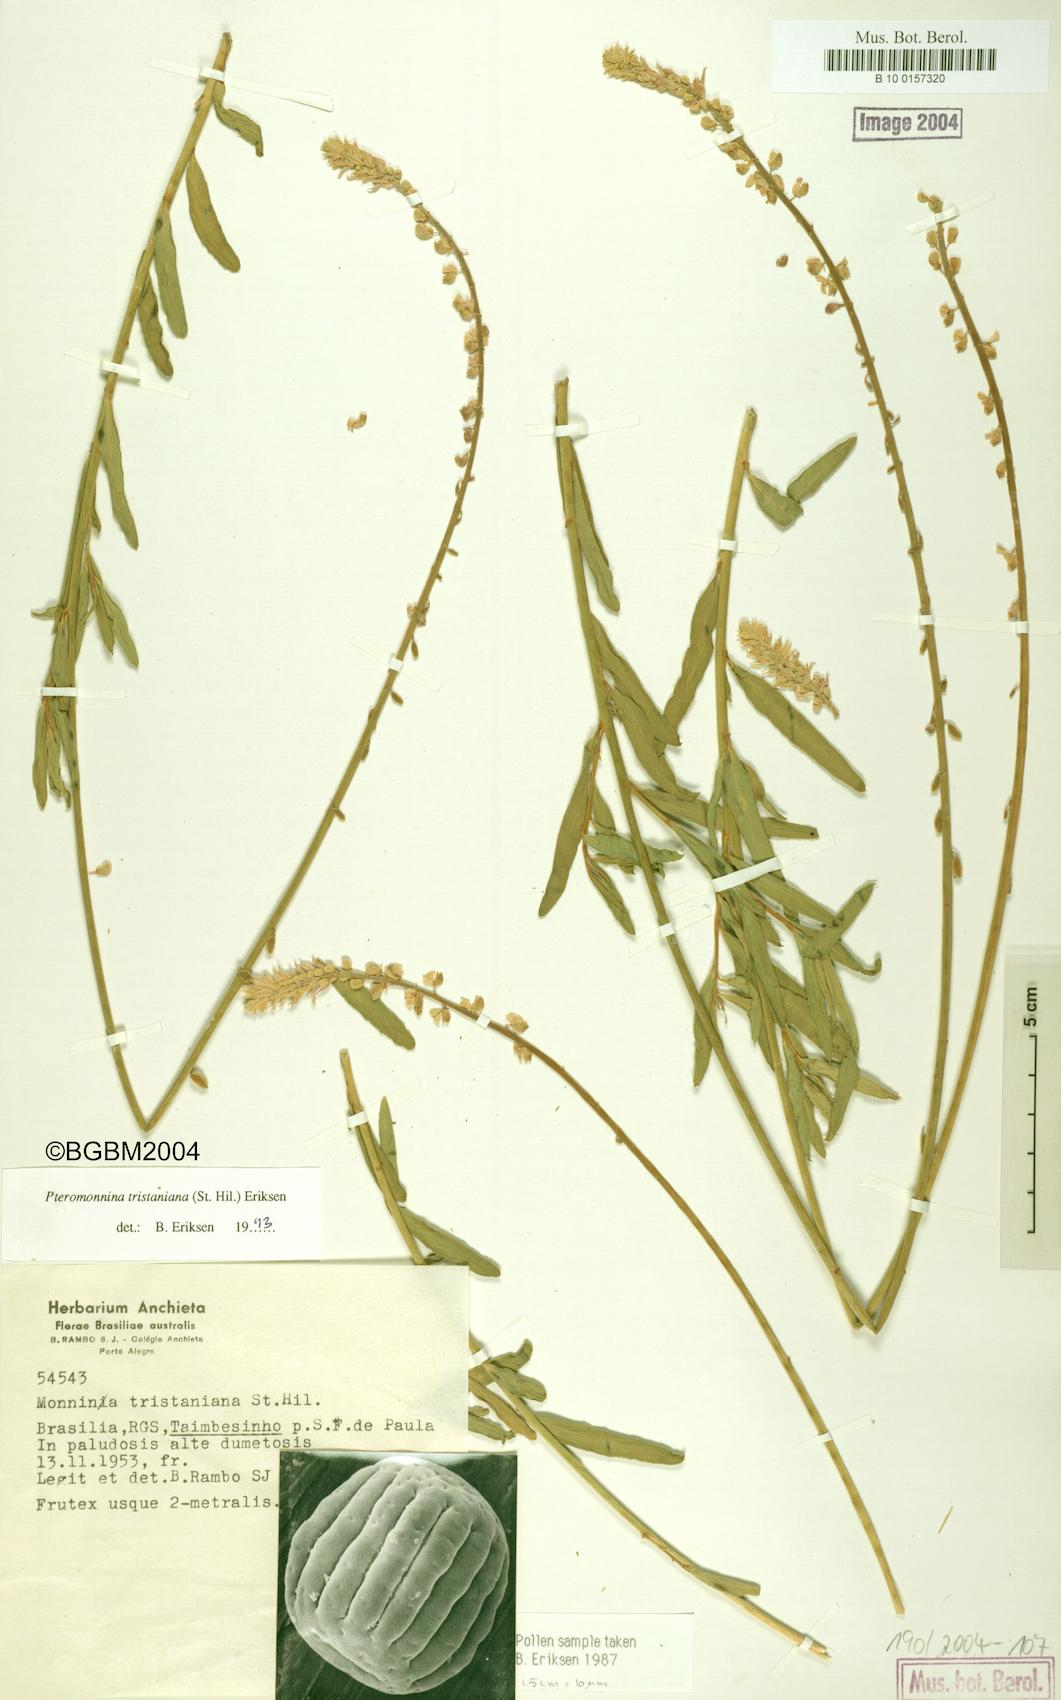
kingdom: Plantae
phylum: Tracheophyta
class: Magnoliopsida
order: Fabales
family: Polygalaceae
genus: Monnina
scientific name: Monnina tristaniana
